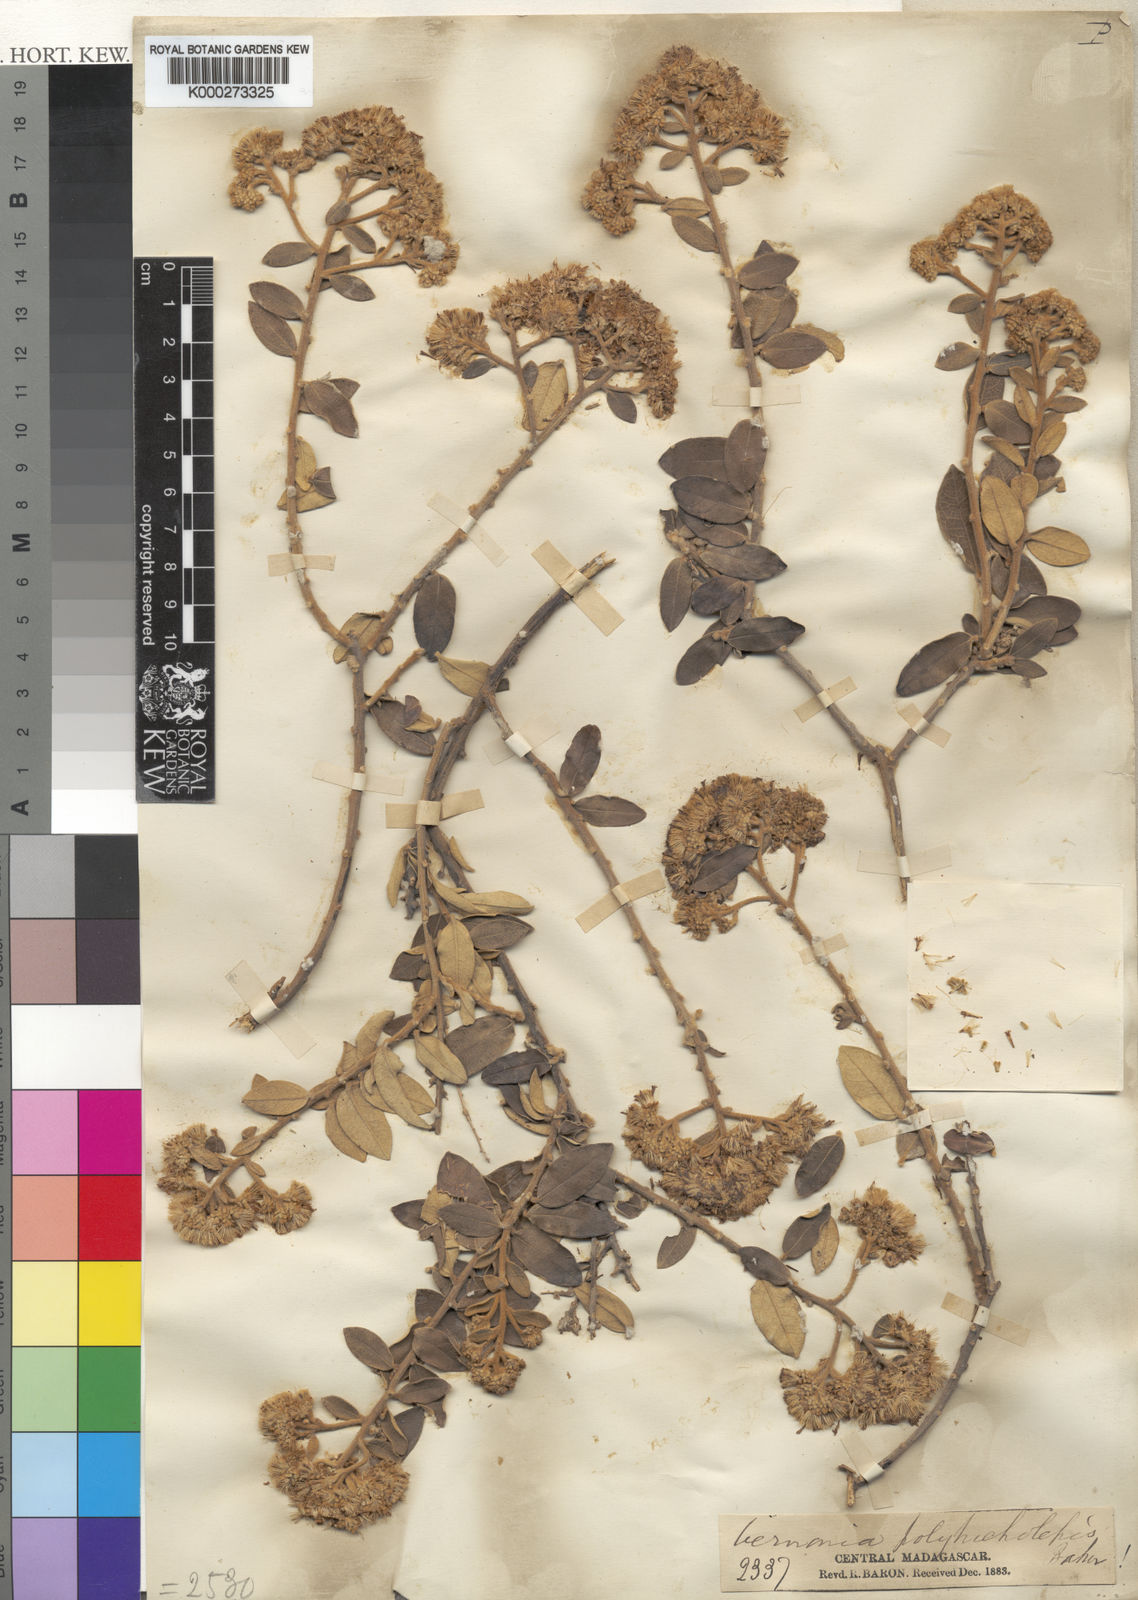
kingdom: Plantae
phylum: Tracheophyta
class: Magnoliopsida
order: Asterales
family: Asteraceae
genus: Distephanus
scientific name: Distephanus polytricholepis
